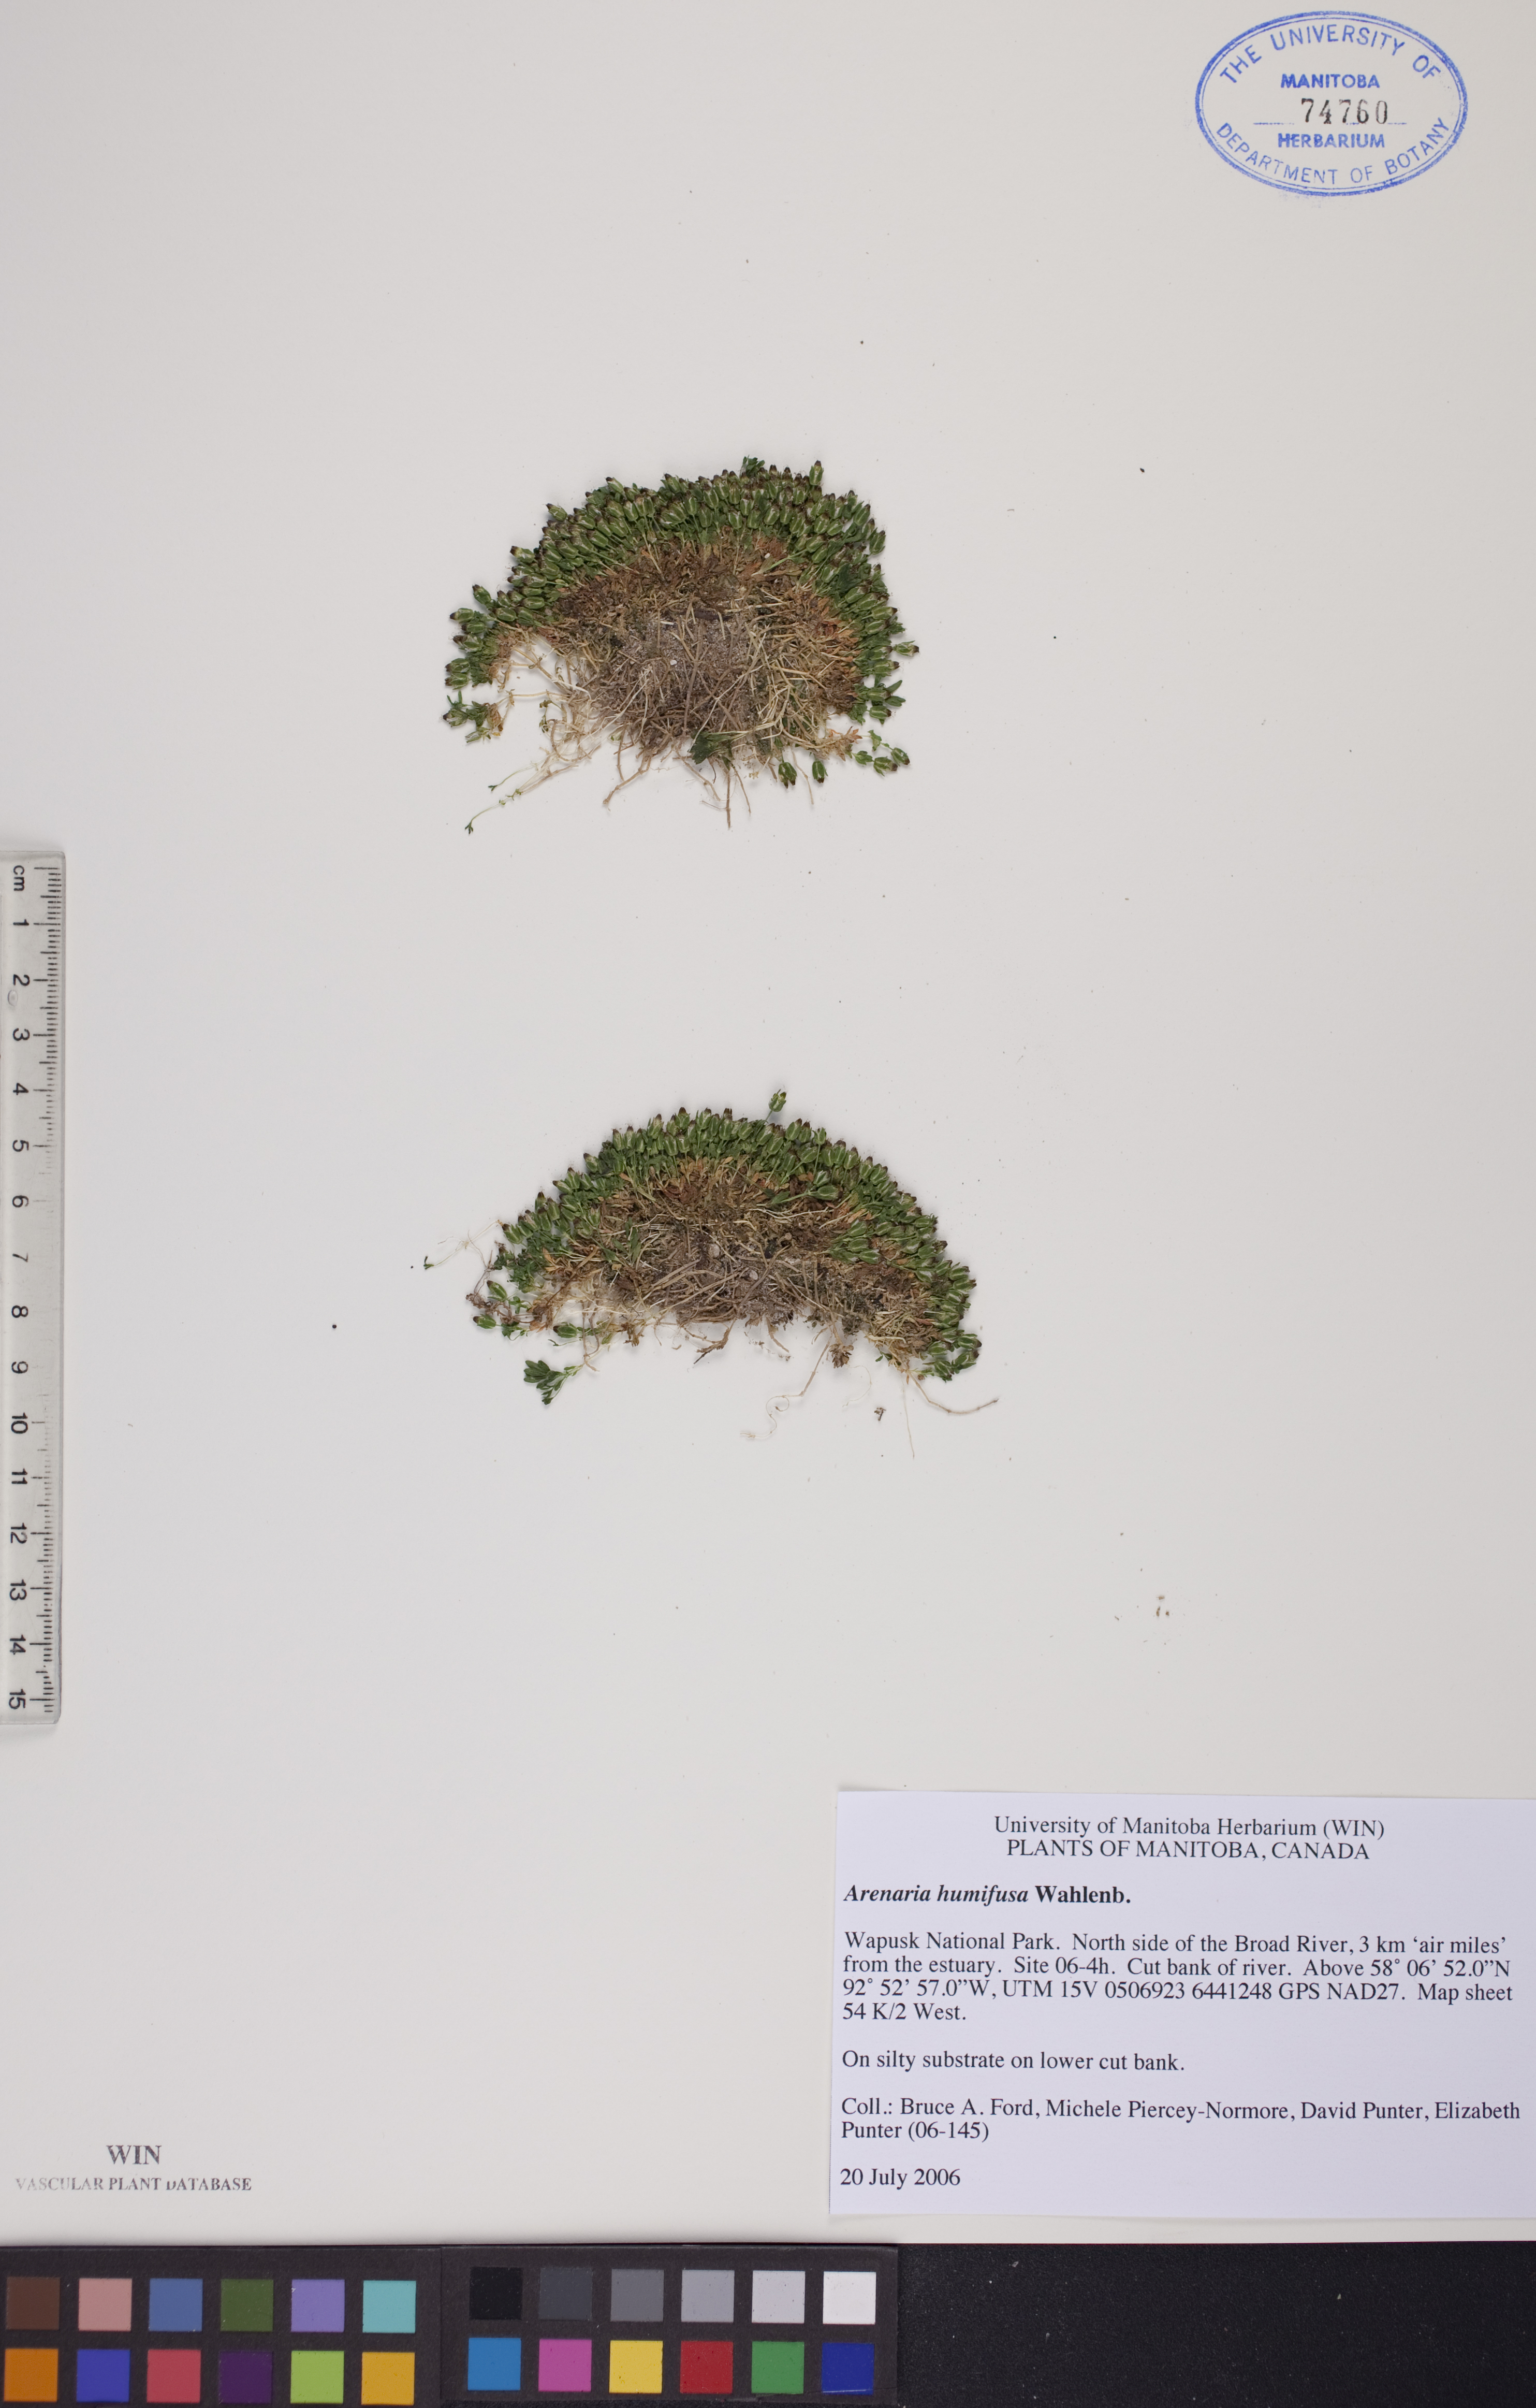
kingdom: Plantae
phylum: Tracheophyta
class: Magnoliopsida
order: Caryophyllales
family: Caryophyllaceae
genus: Arenaria
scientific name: Arenaria humifusa
